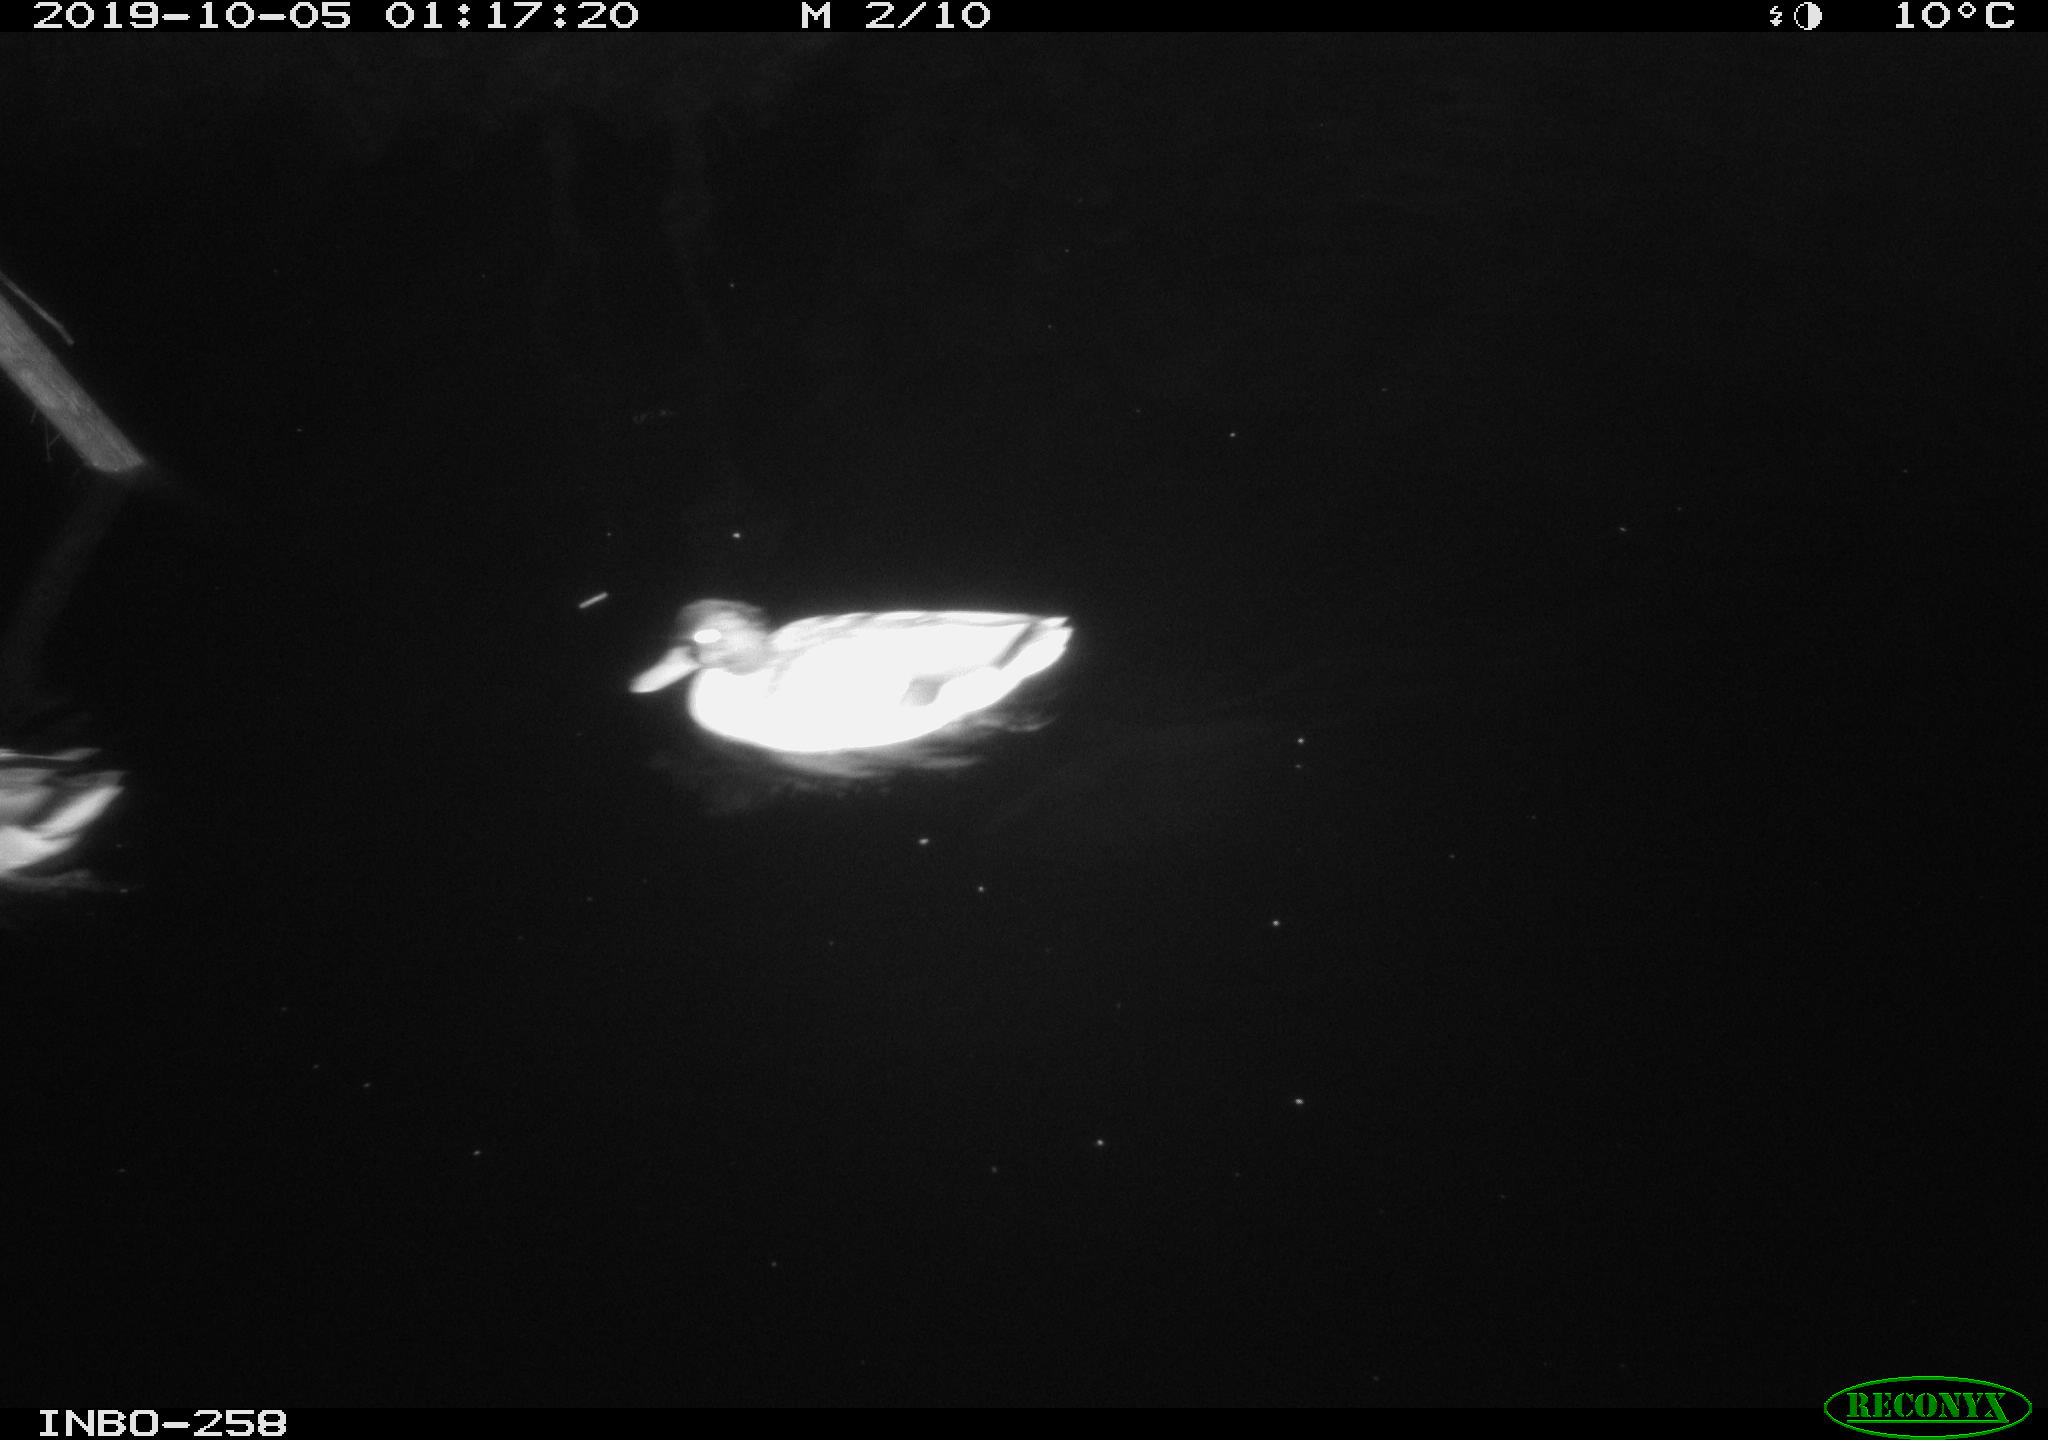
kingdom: Animalia
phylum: Chordata
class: Aves
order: Anseriformes
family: Anatidae
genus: Anas
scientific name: Anas platyrhynchos
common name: Mallard
